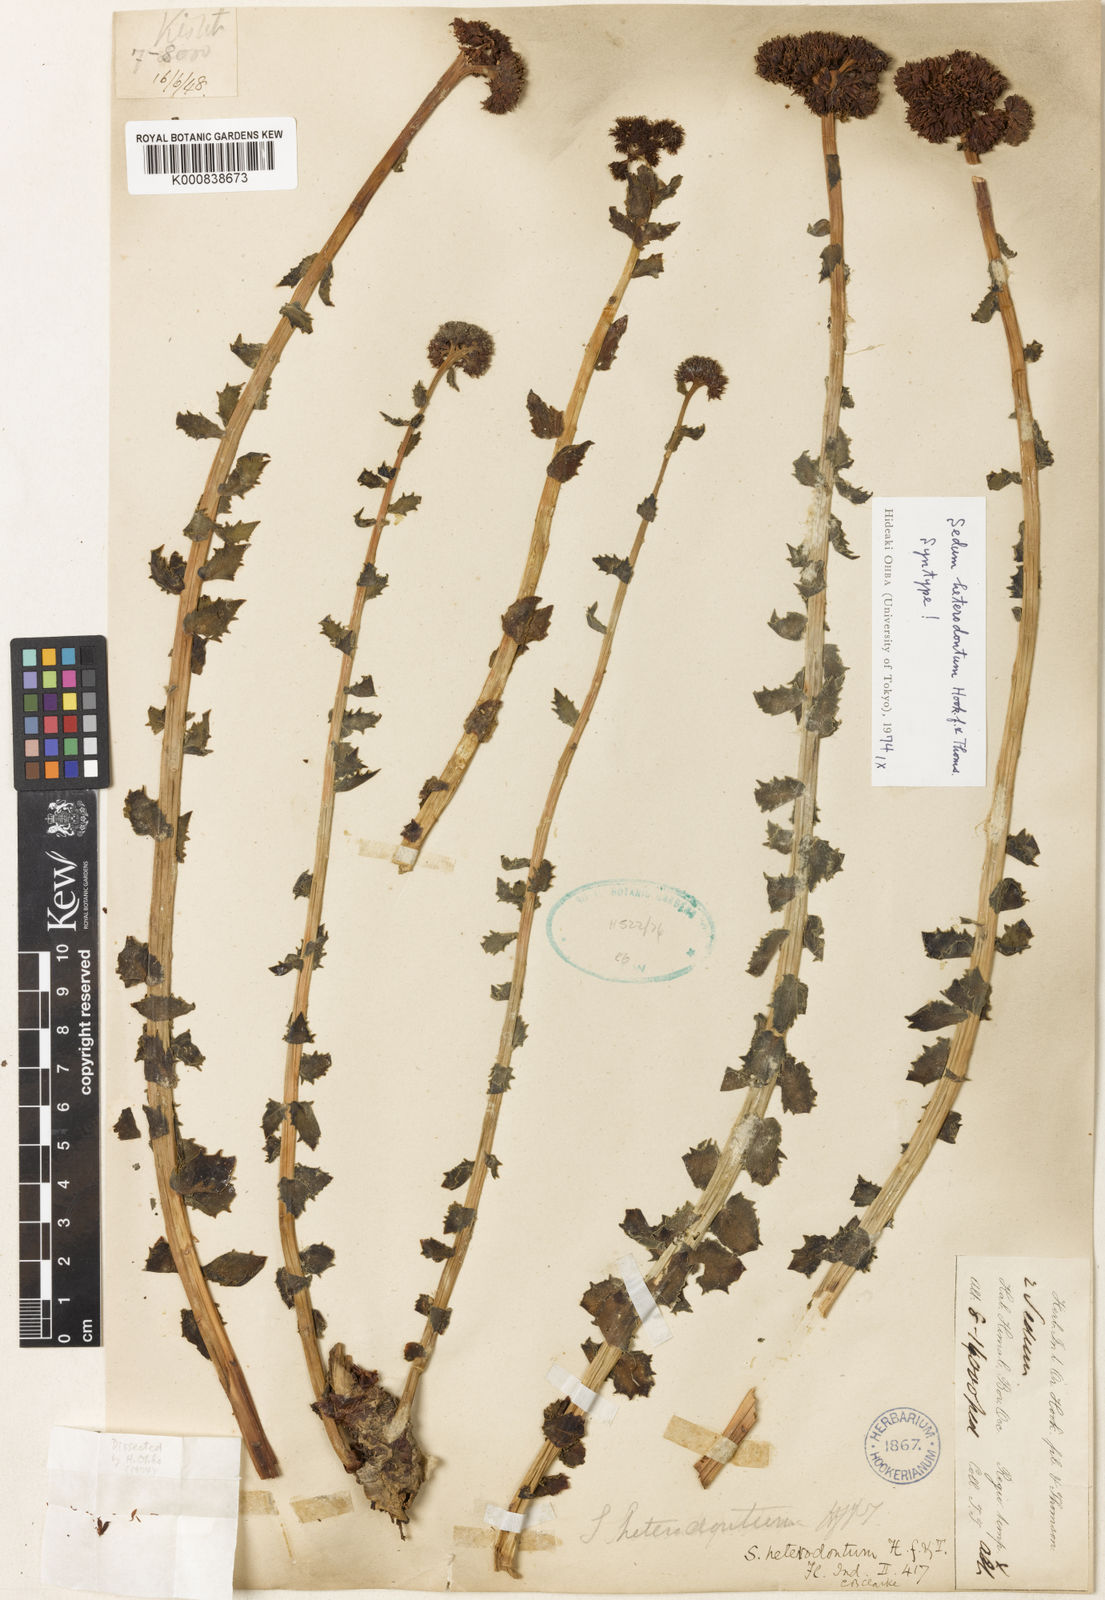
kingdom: Plantae
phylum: Tracheophyta
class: Magnoliopsida
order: Saxifragales
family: Crassulaceae
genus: Rhodiola
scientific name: Rhodiola rosea
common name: Roseroot
